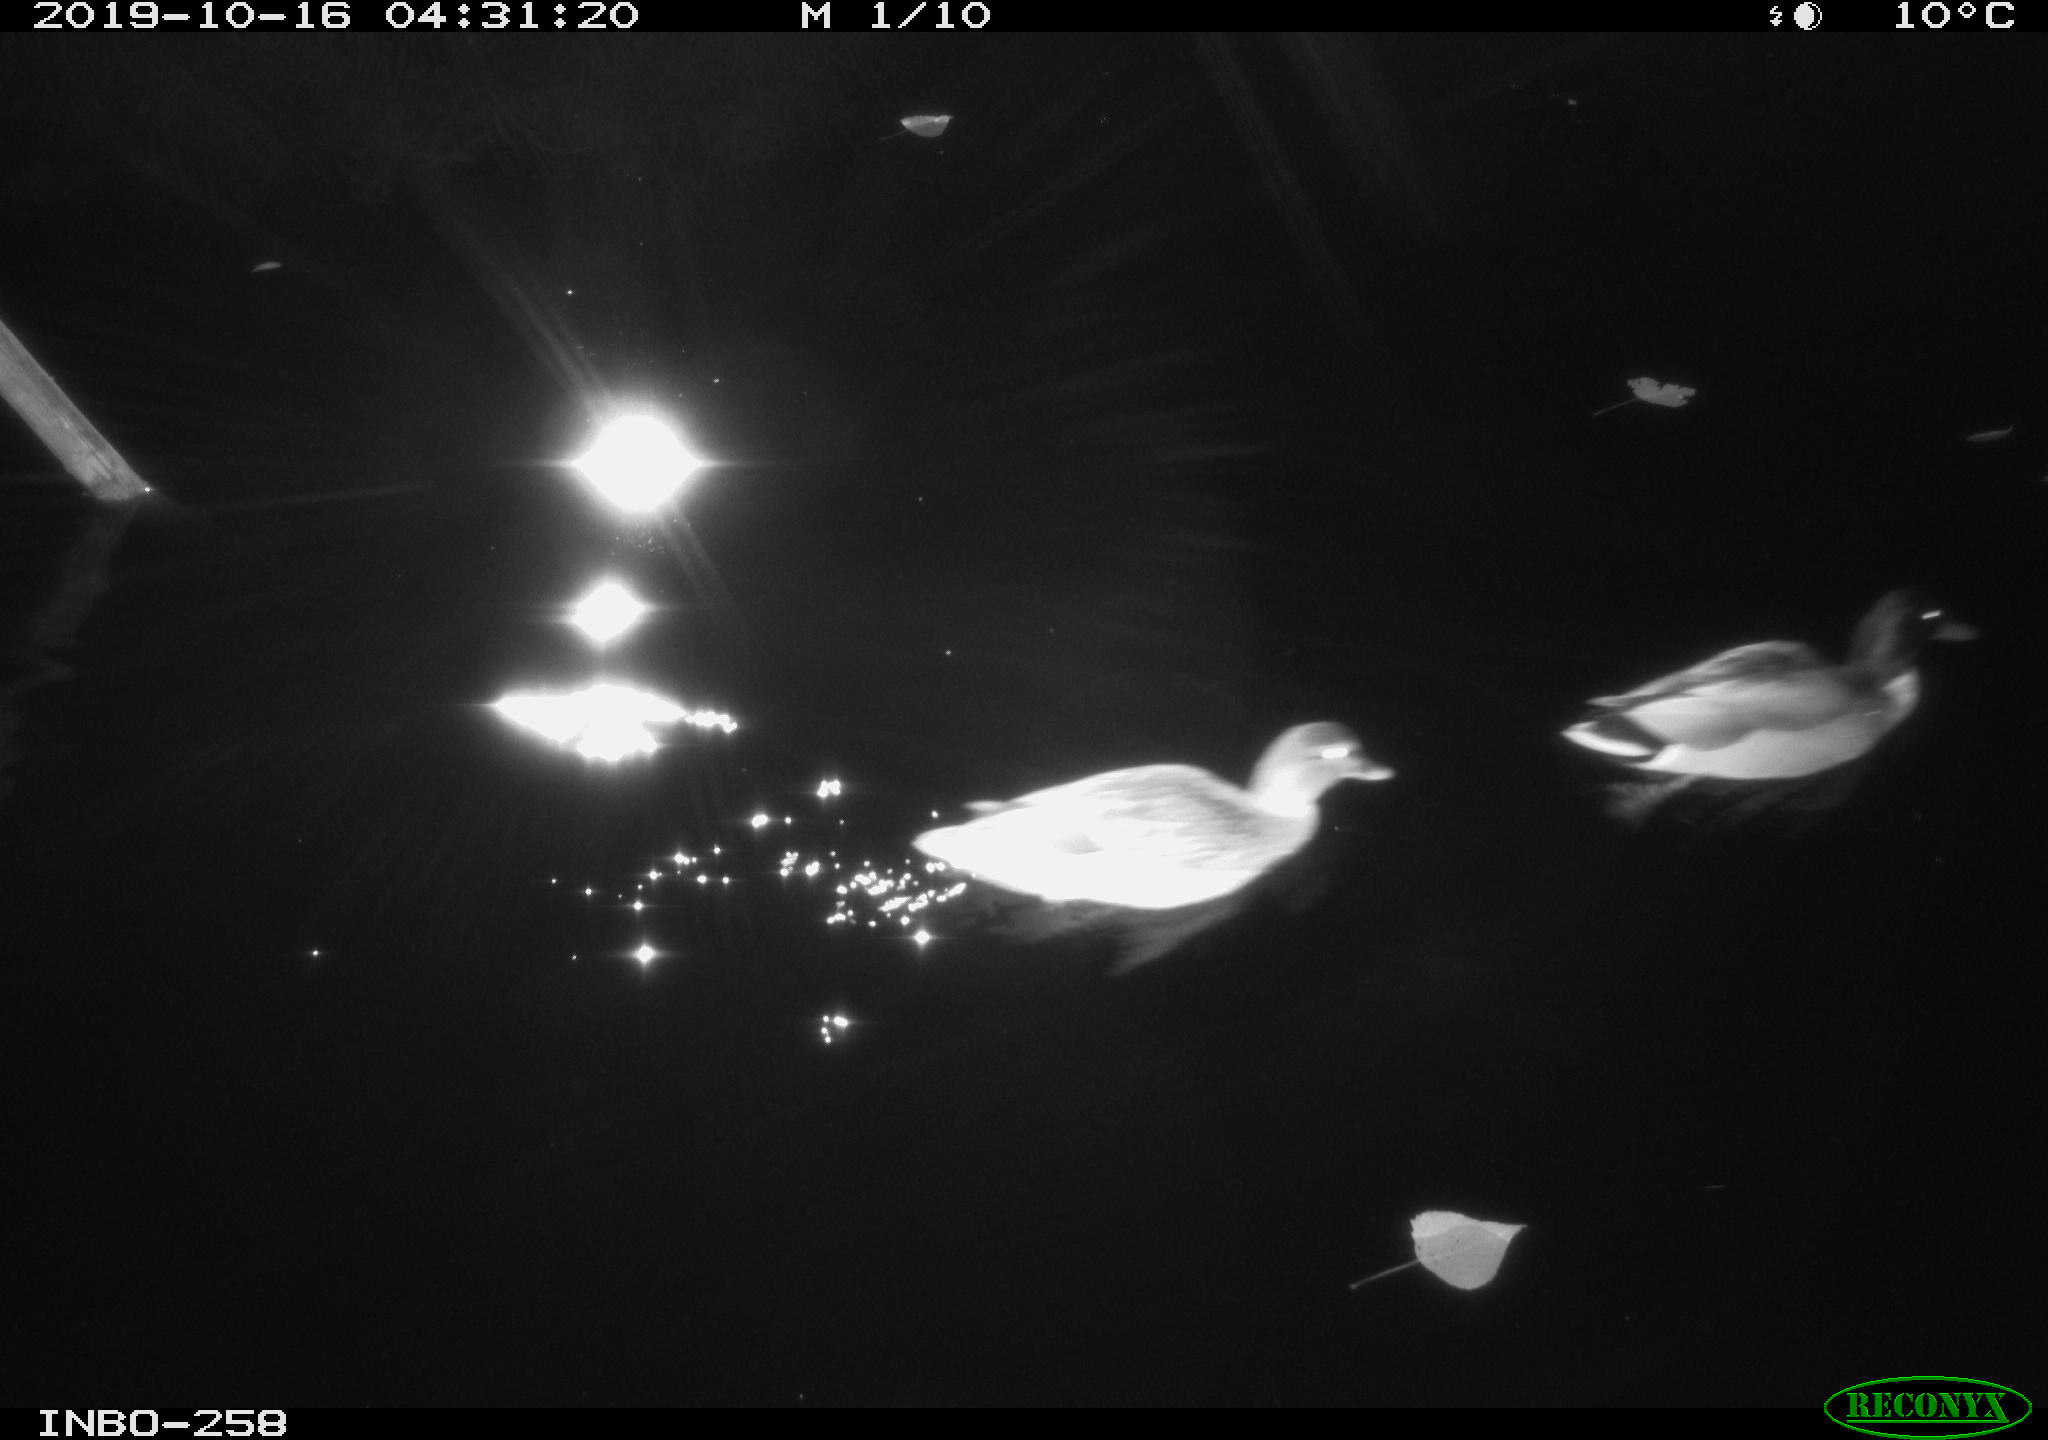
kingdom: Animalia
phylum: Chordata
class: Aves
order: Anseriformes
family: Anatidae
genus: Anas
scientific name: Anas platyrhynchos
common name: Mallard
